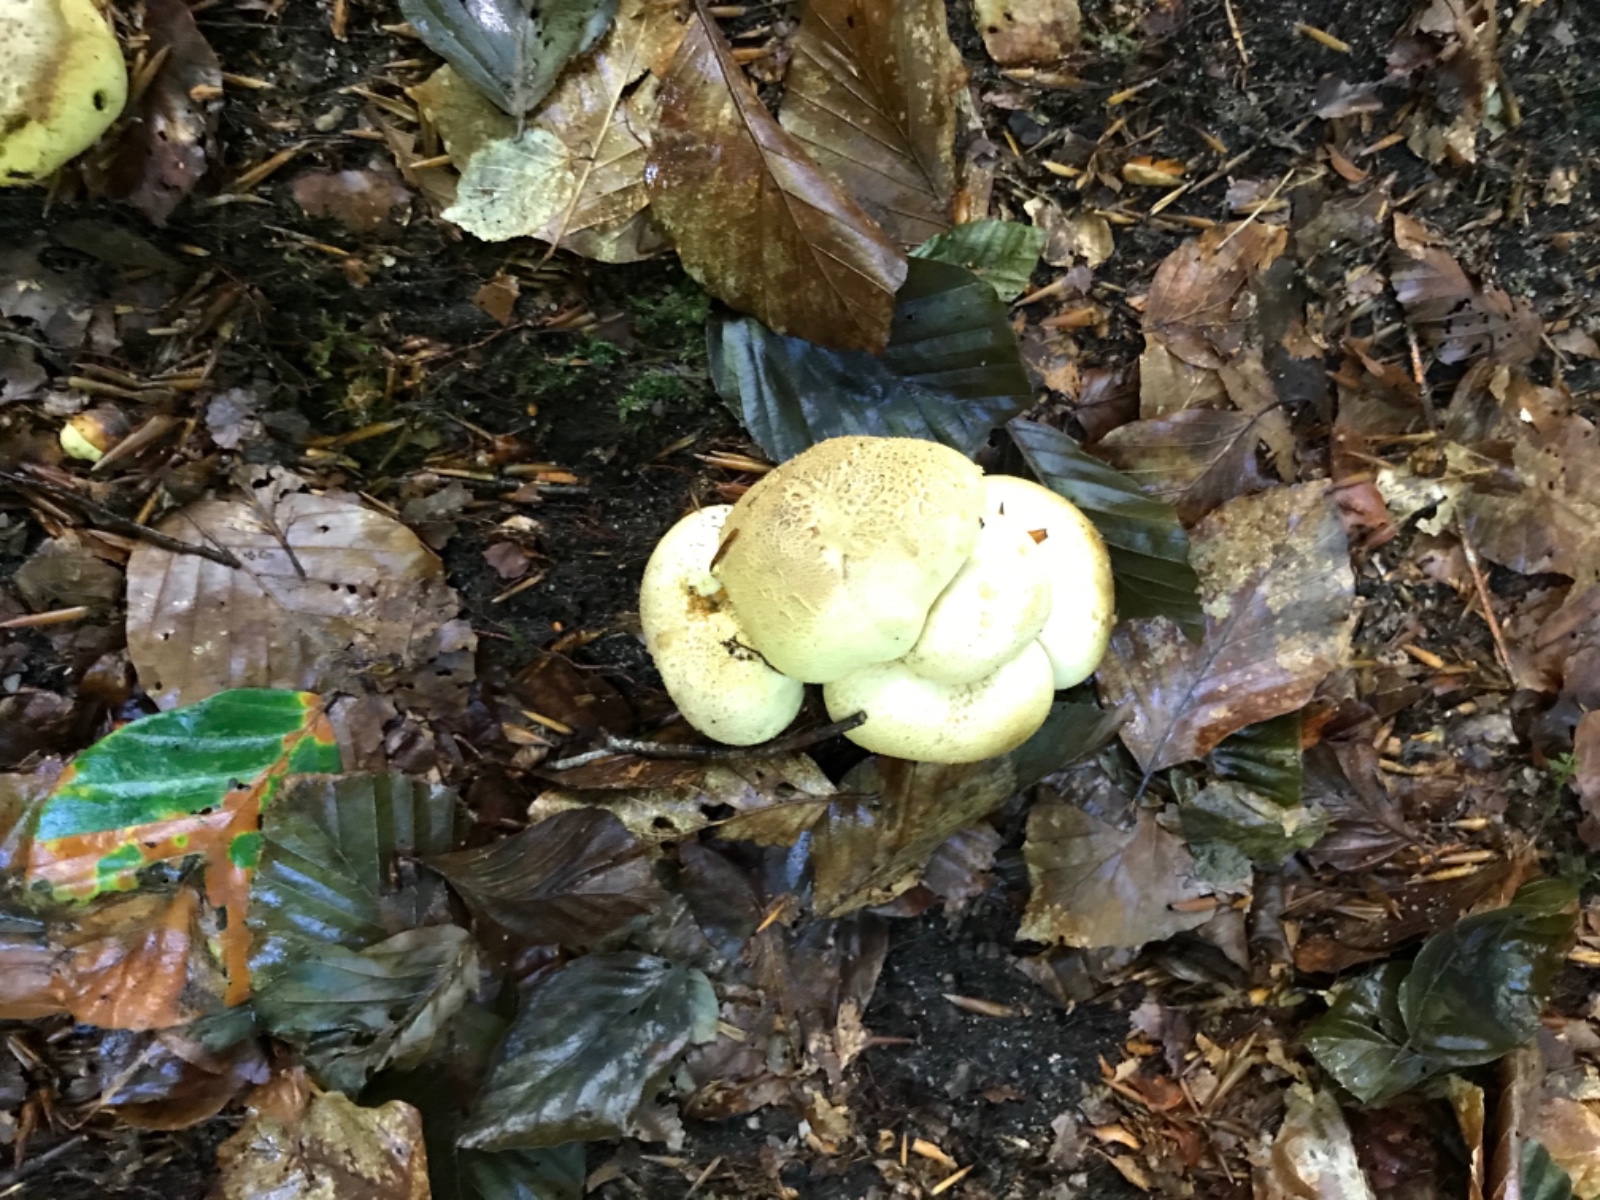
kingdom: Fungi
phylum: Basidiomycota
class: Agaricomycetes
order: Boletales
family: Sclerodermataceae
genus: Scleroderma
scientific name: Scleroderma citrinum
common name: almindelig bruskbold
